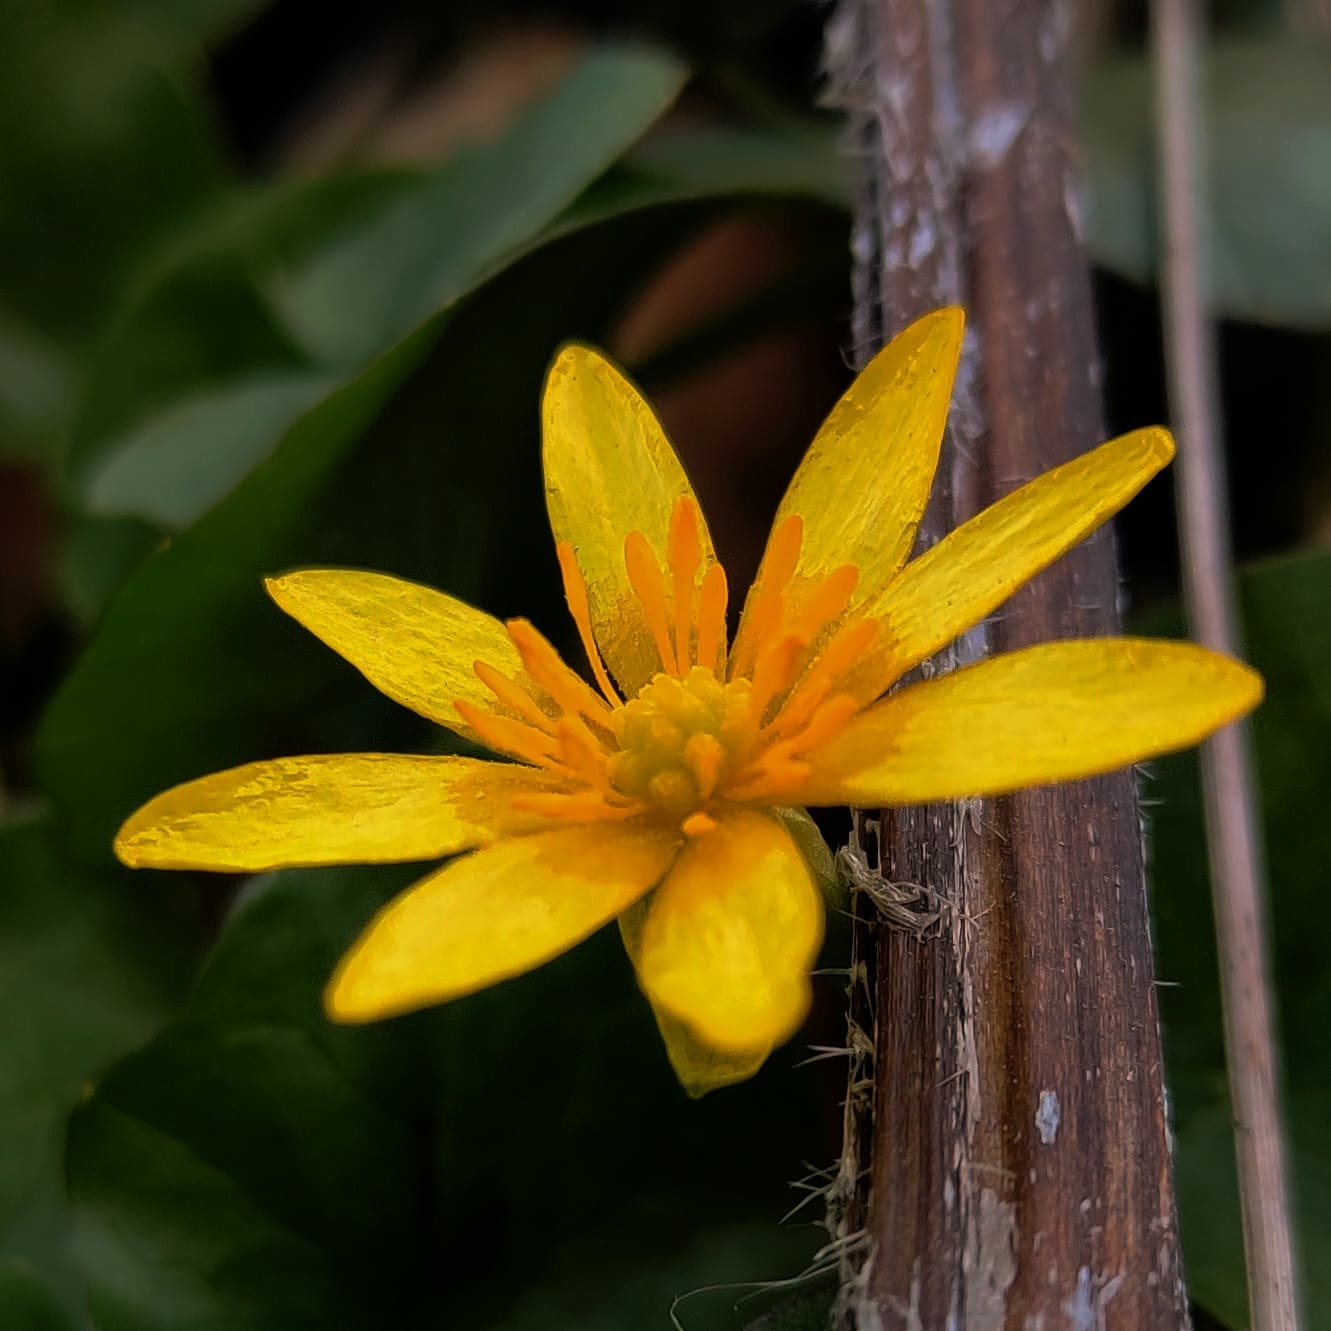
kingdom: Plantae
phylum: Tracheophyta
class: Magnoliopsida
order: Ranunculales
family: Ranunculaceae
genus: Ficaria
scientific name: Ficaria verna
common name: Vorterod
